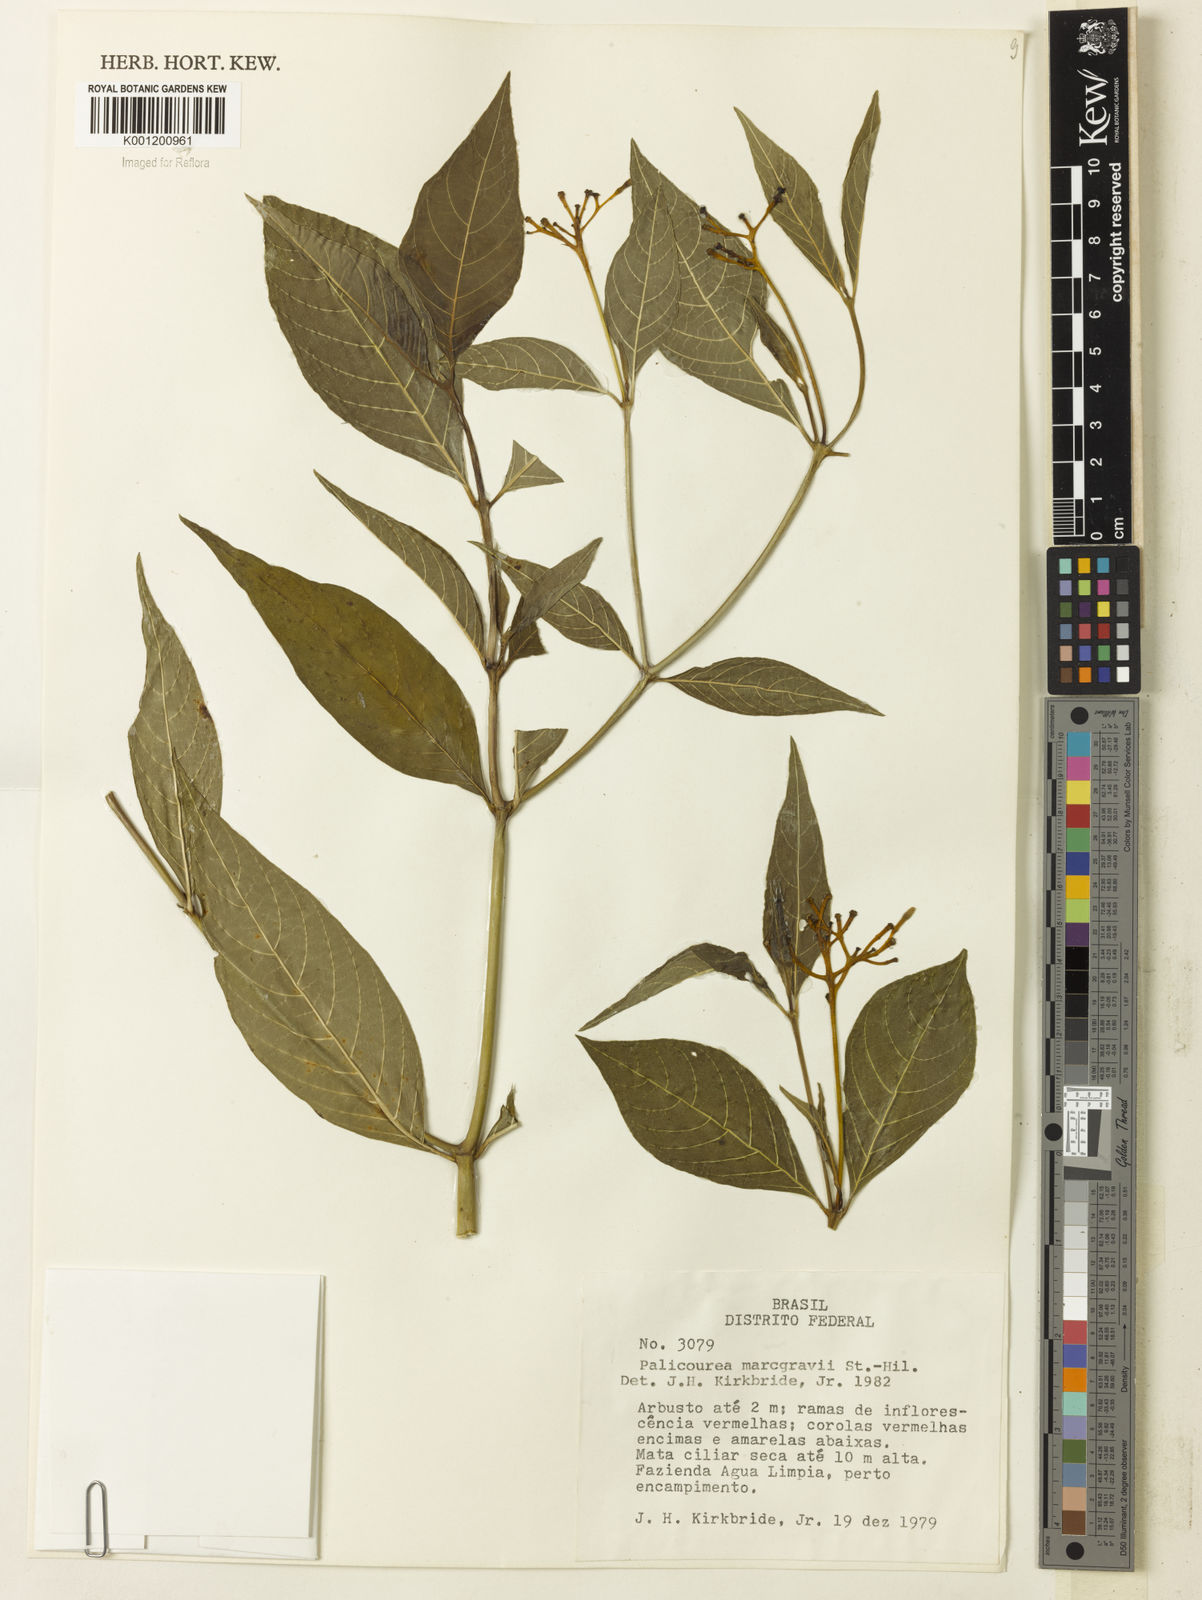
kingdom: Plantae
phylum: Tracheophyta
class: Magnoliopsida
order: Gentianales
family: Rubiaceae
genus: Palicourea
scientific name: Palicourea marcgravii
